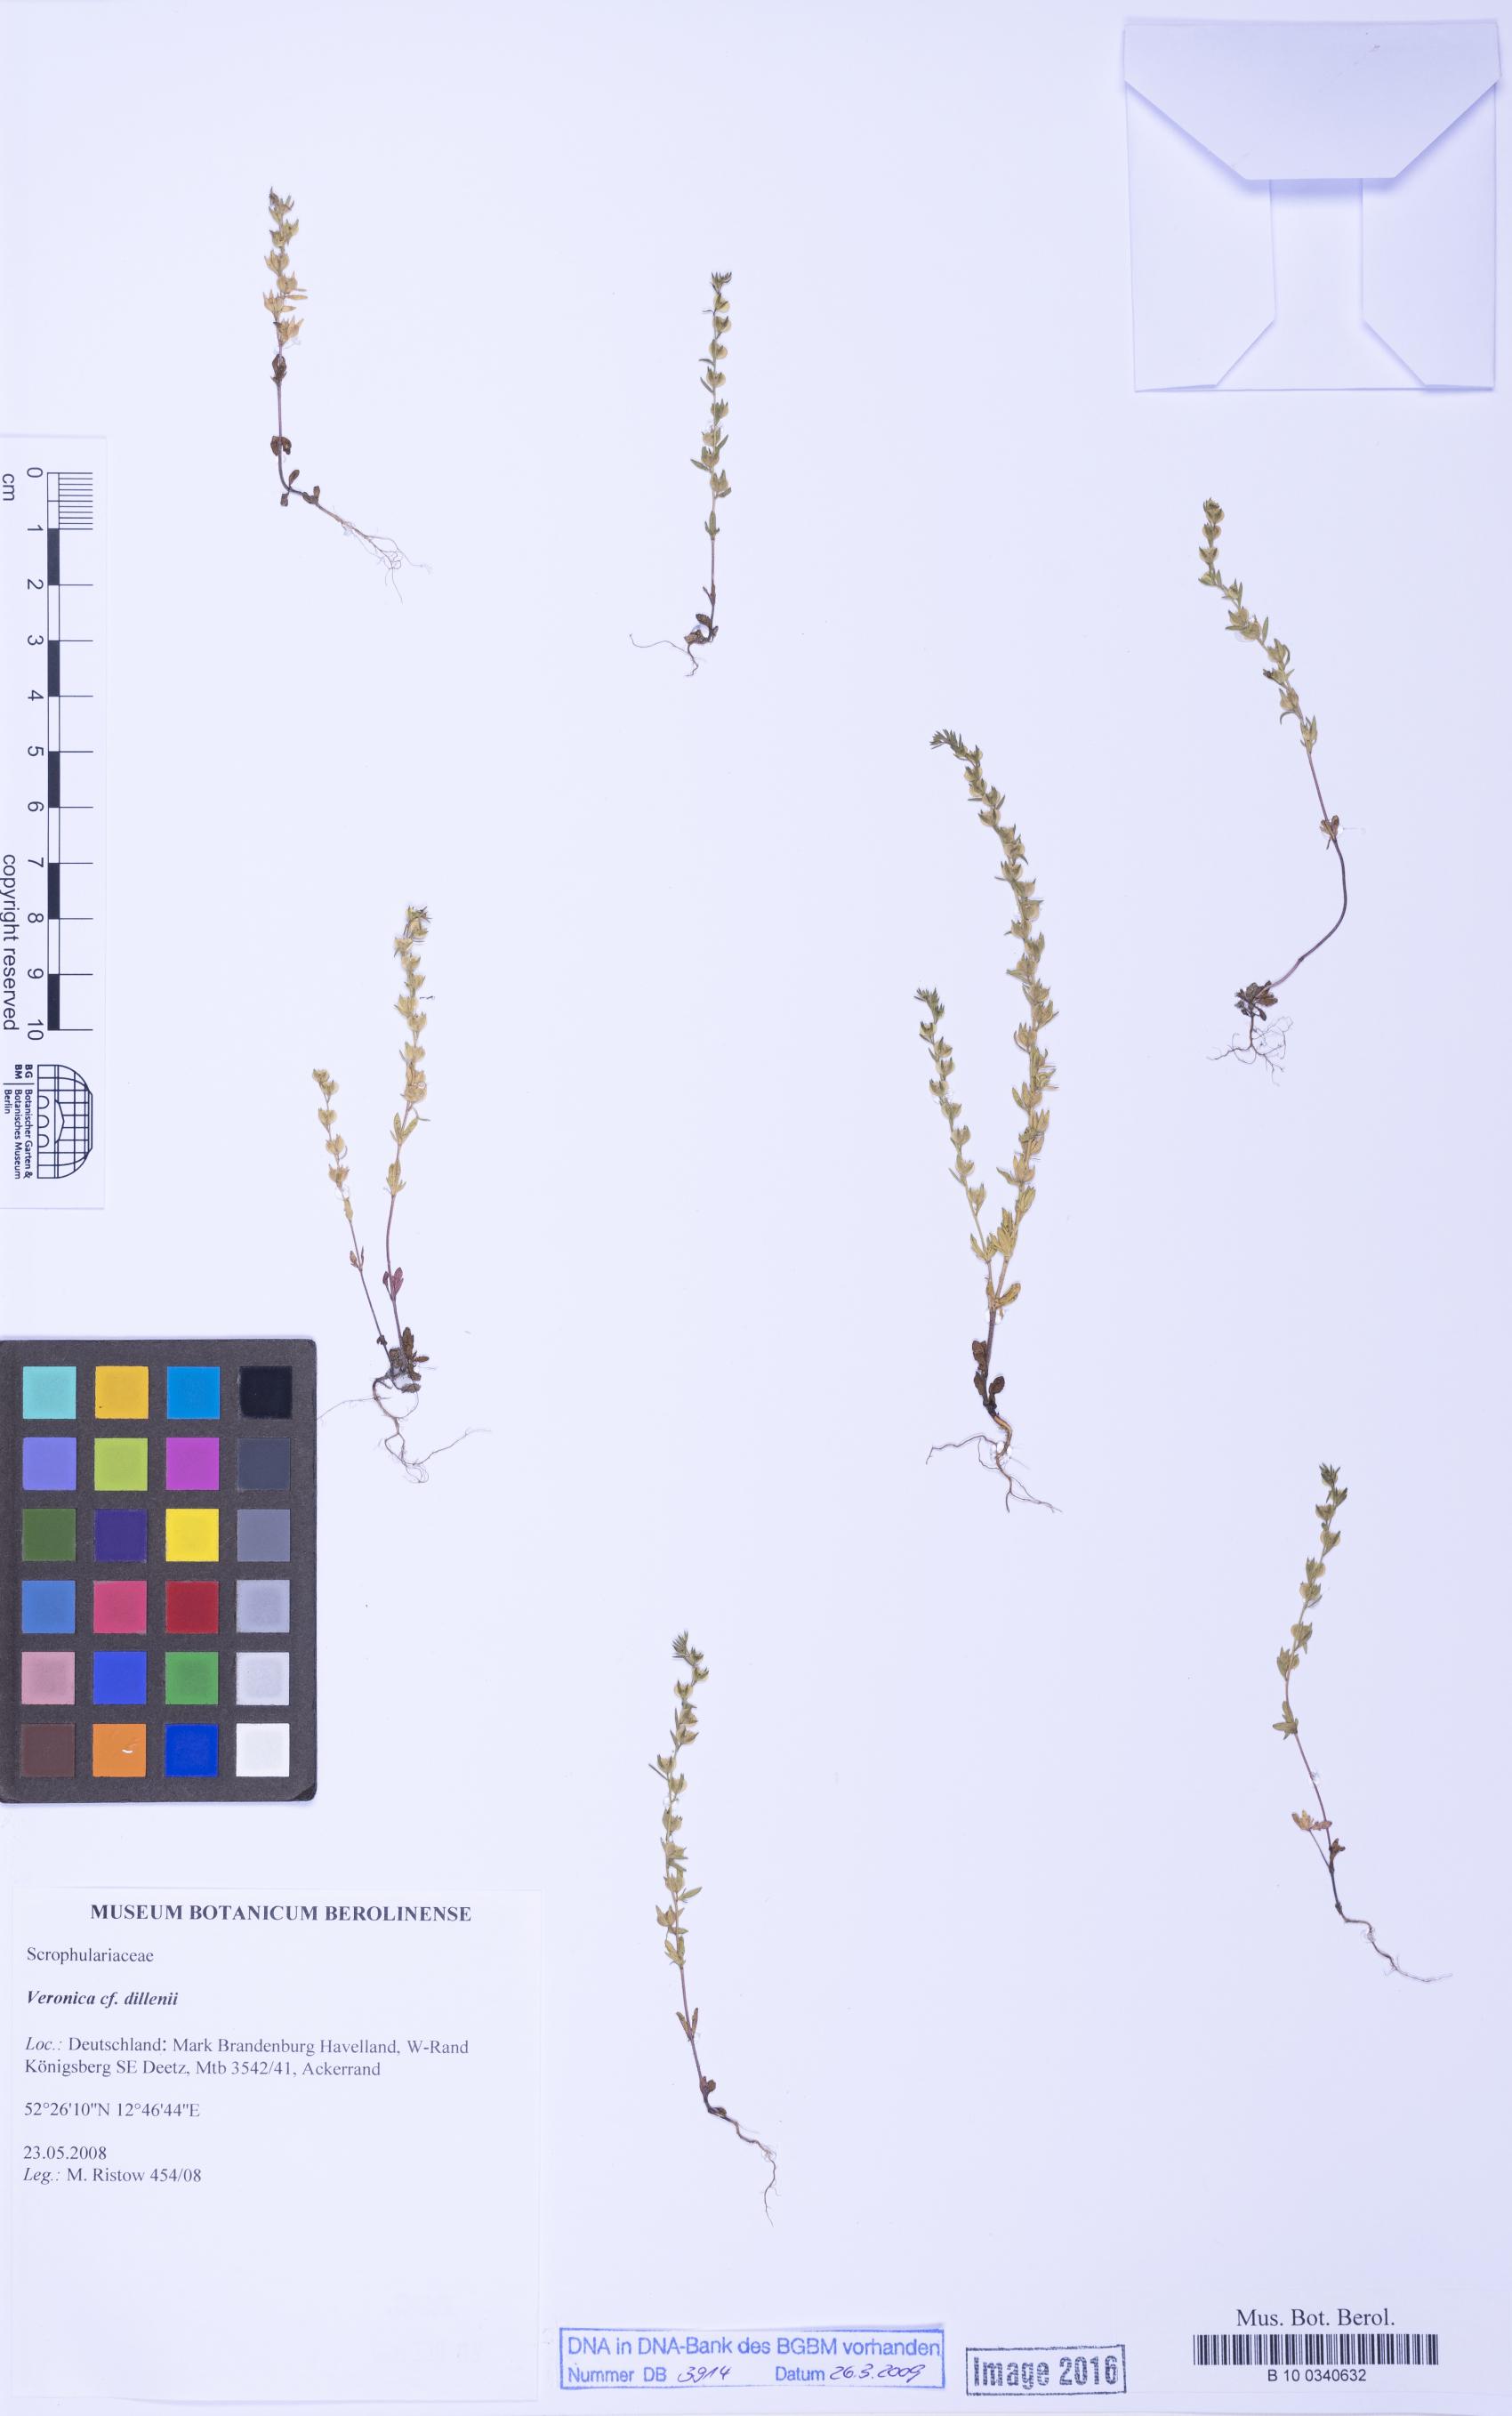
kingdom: Plantae
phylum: Tracheophyta
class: Magnoliopsida
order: Lamiales
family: Plantaginaceae
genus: Veronica
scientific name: Veronica dillenii
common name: Dillenius' speedwell
